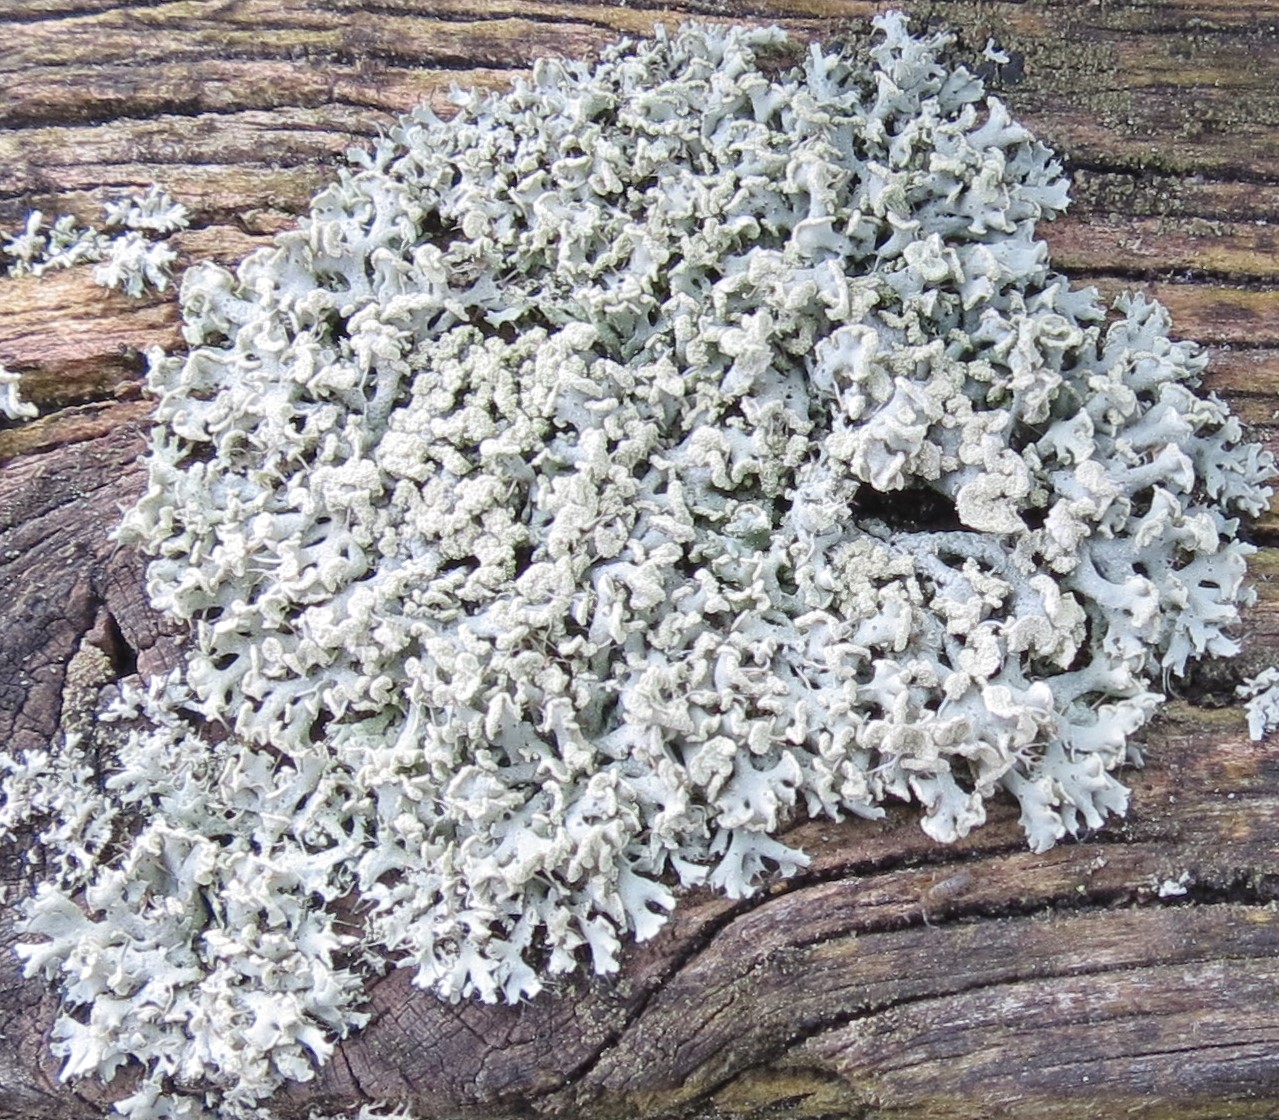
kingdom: Fungi
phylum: Ascomycota
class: Lecanoromycetes
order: Caliciales
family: Physciaceae
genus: Physcia
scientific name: Physcia tenella
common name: spæd rosetlav
